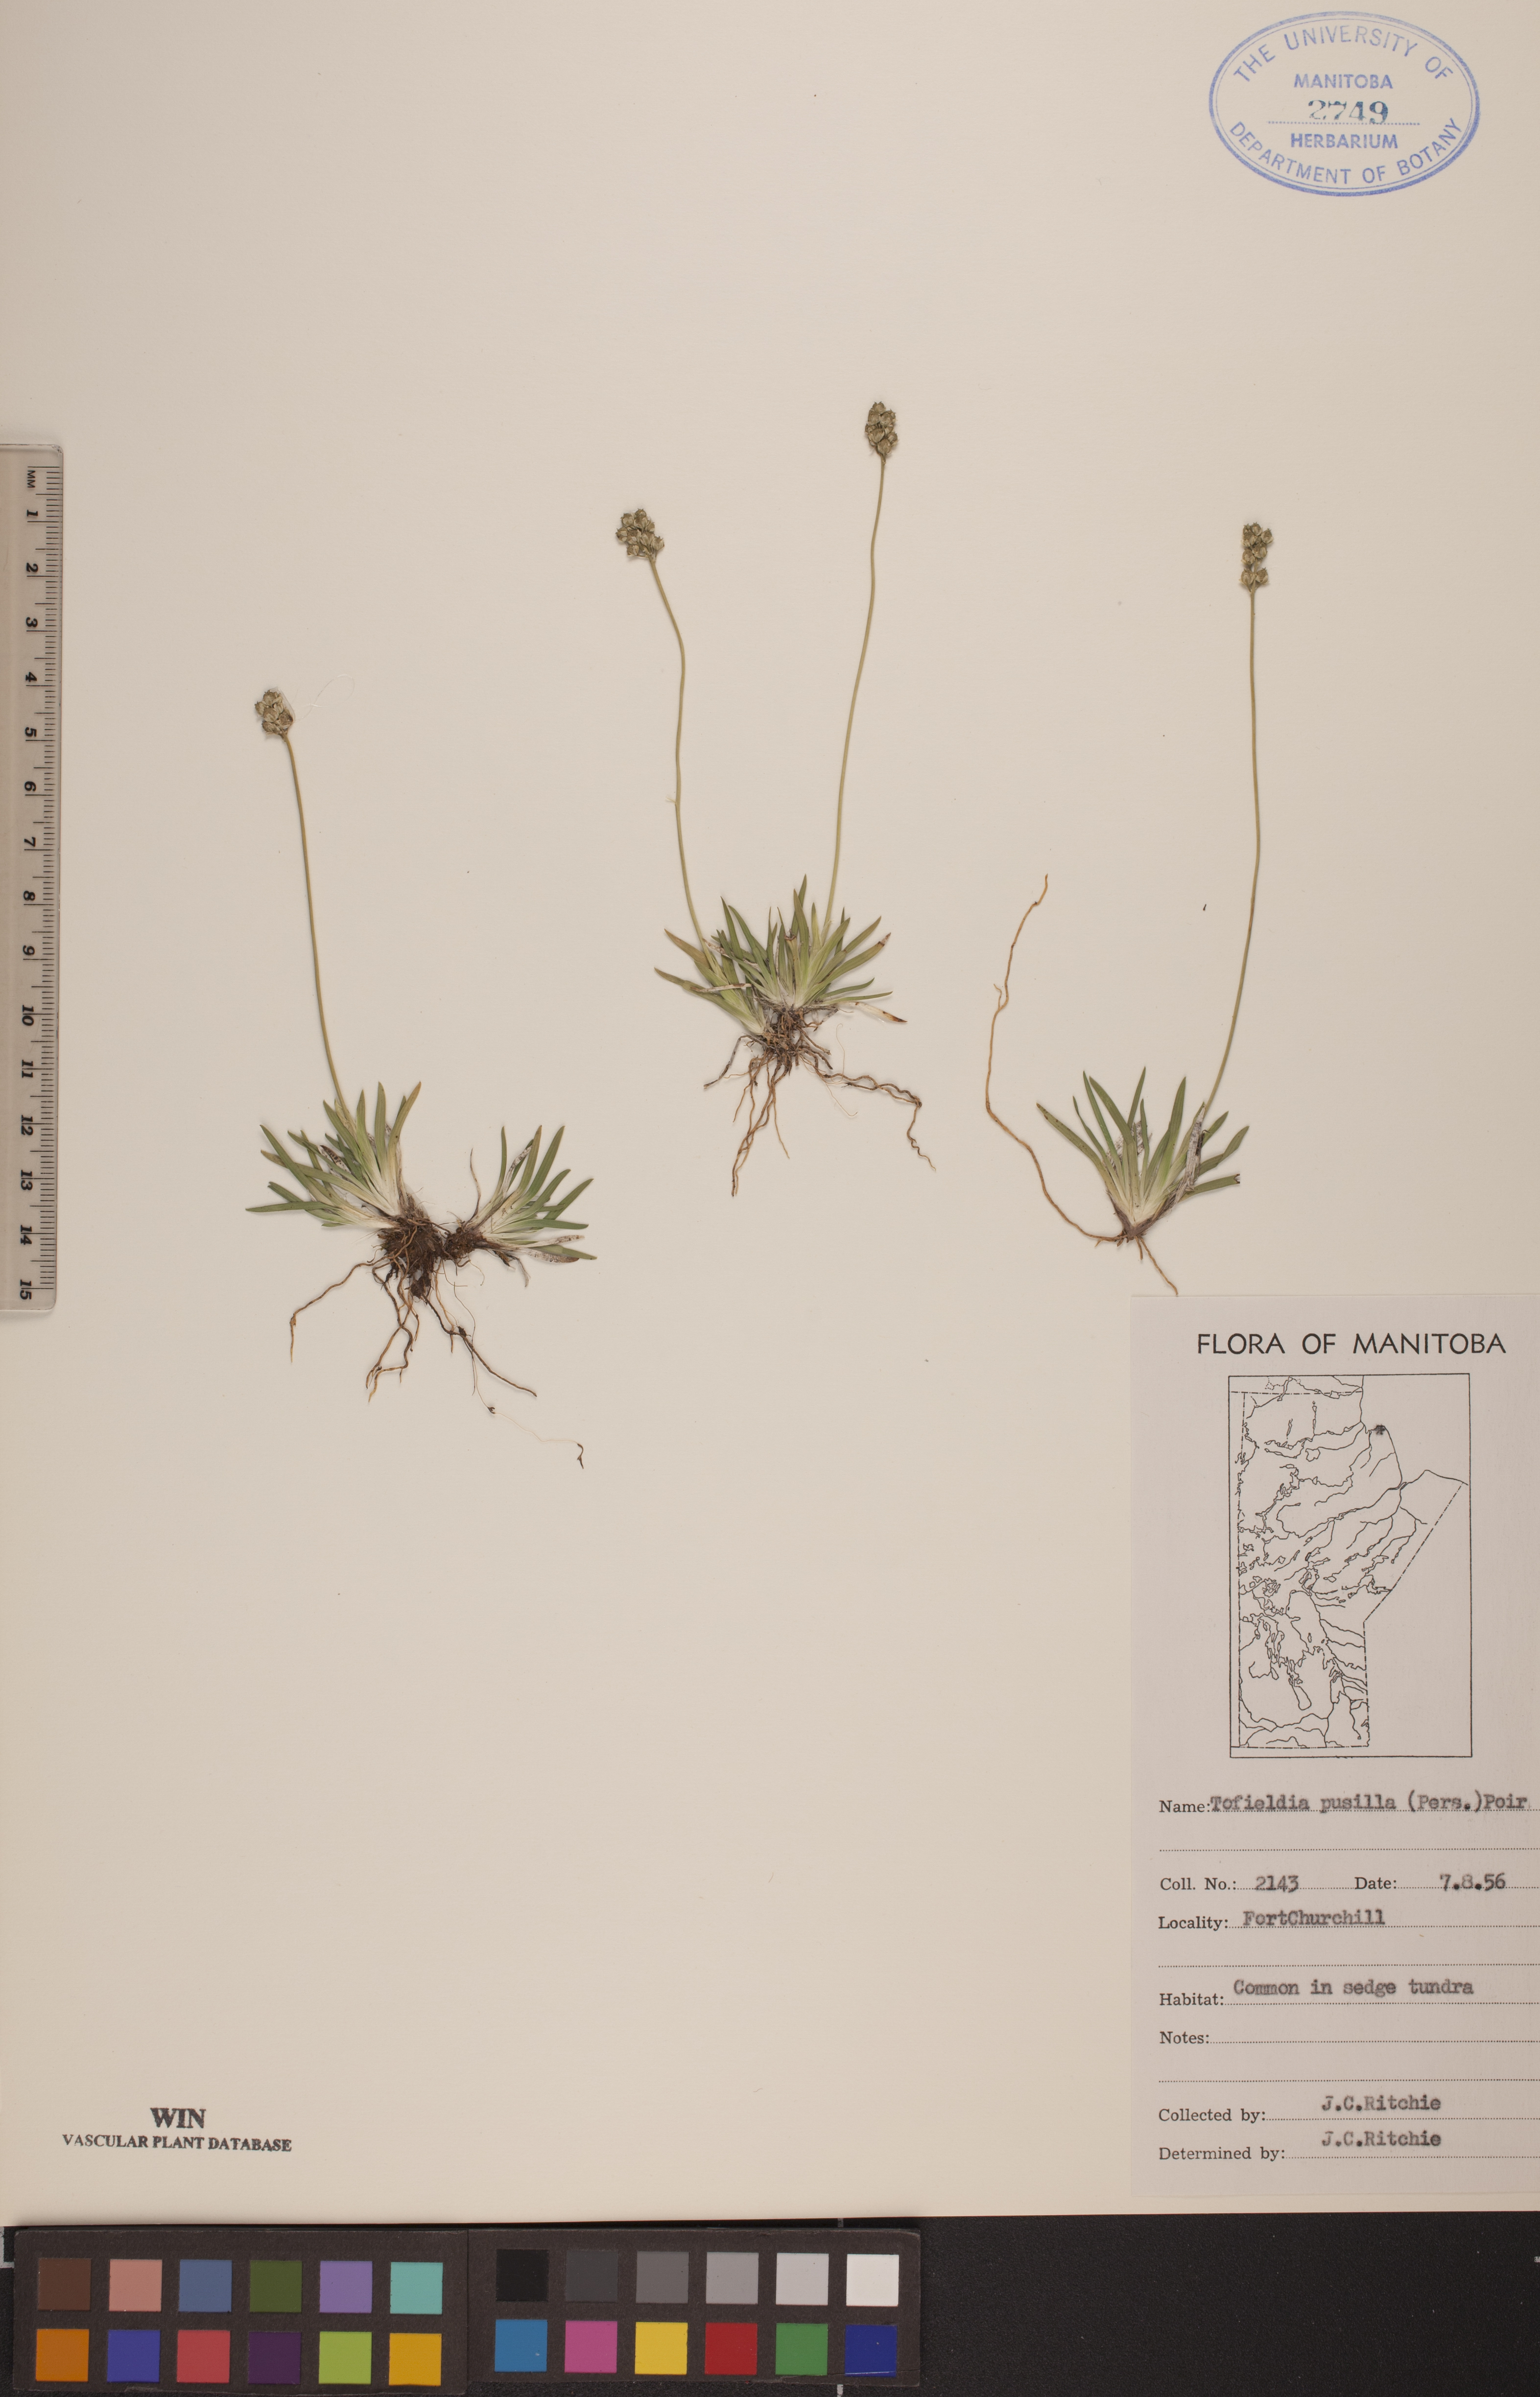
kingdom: Plantae
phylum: Tracheophyta
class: Liliopsida
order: Alismatales
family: Tofieldiaceae
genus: Tofieldia
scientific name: Tofieldia pusilla
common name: Scottish false asphodel
